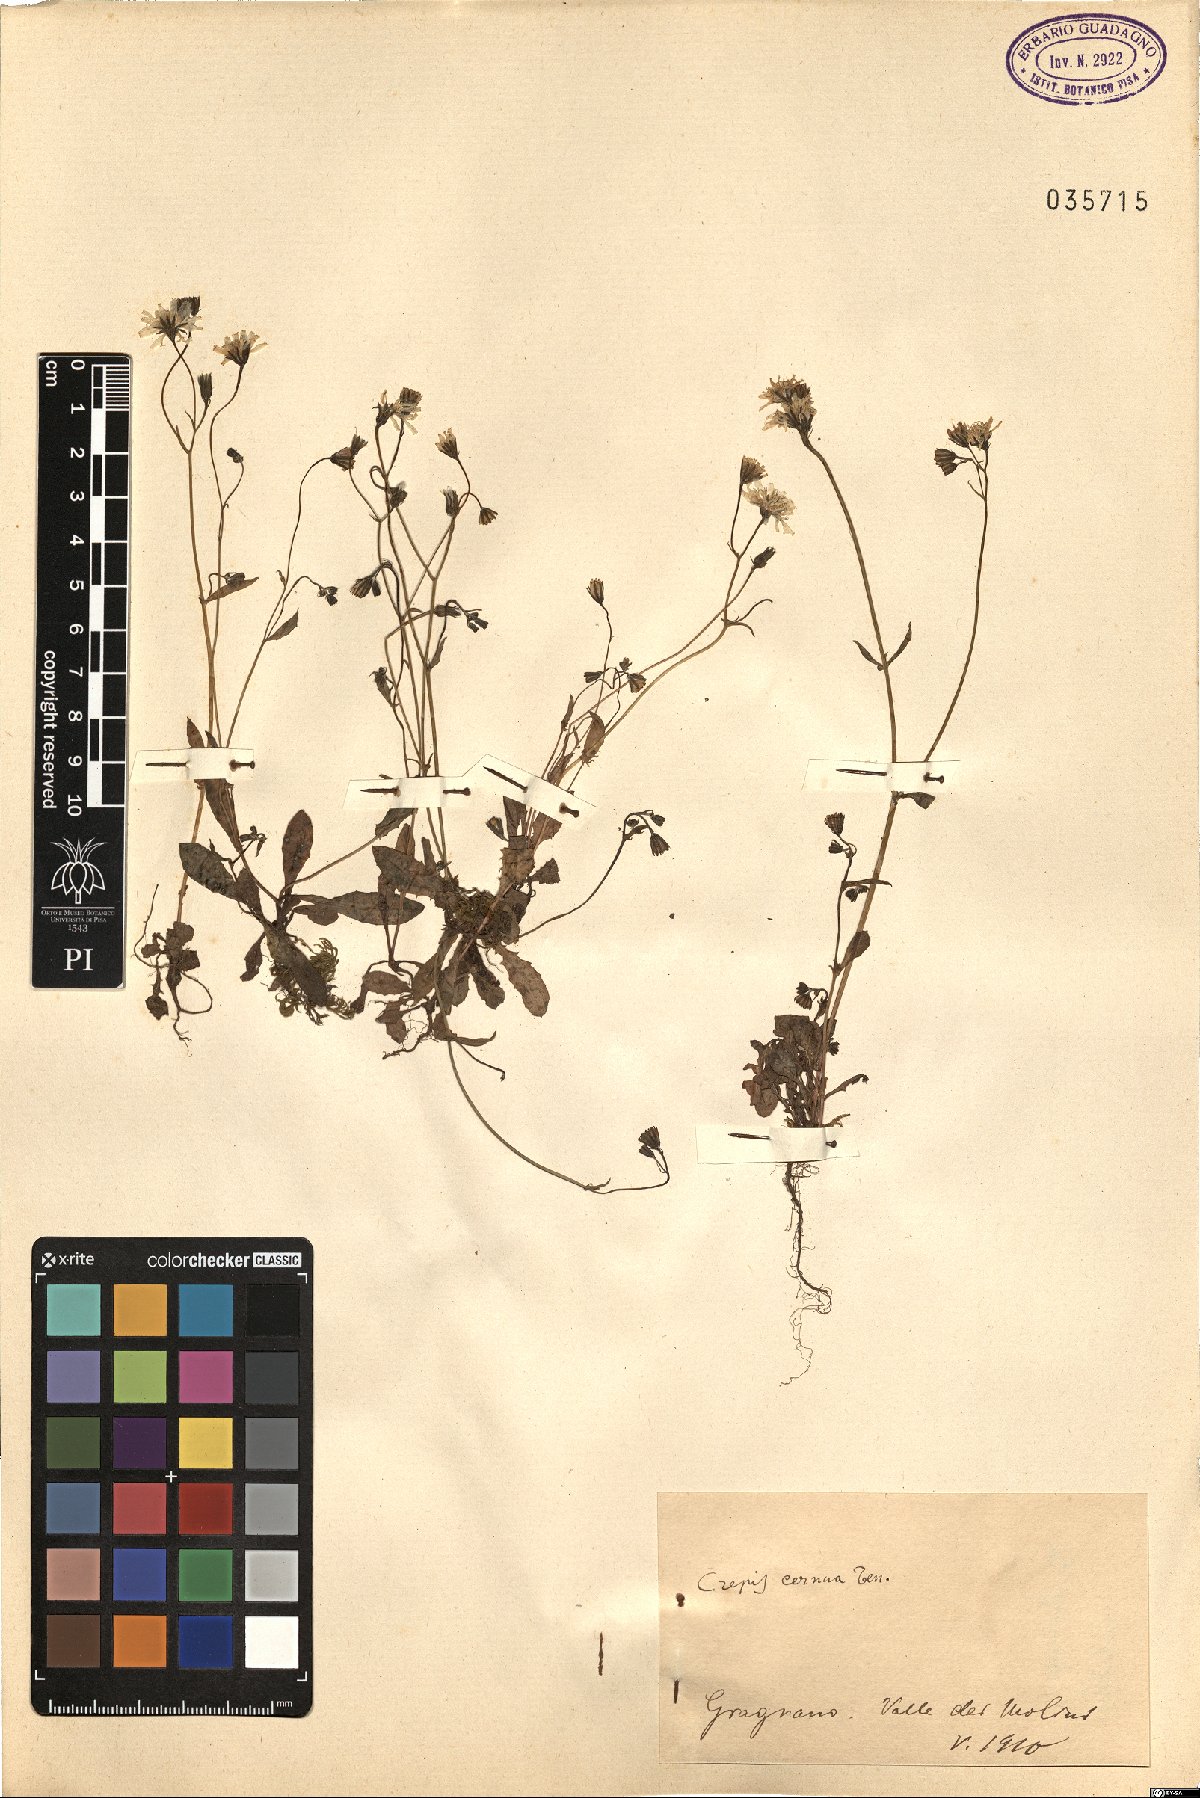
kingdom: Plantae
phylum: Tracheophyta
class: Magnoliopsida
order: Asterales
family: Asteraceae
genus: Crepis
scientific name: Crepis neglecta
